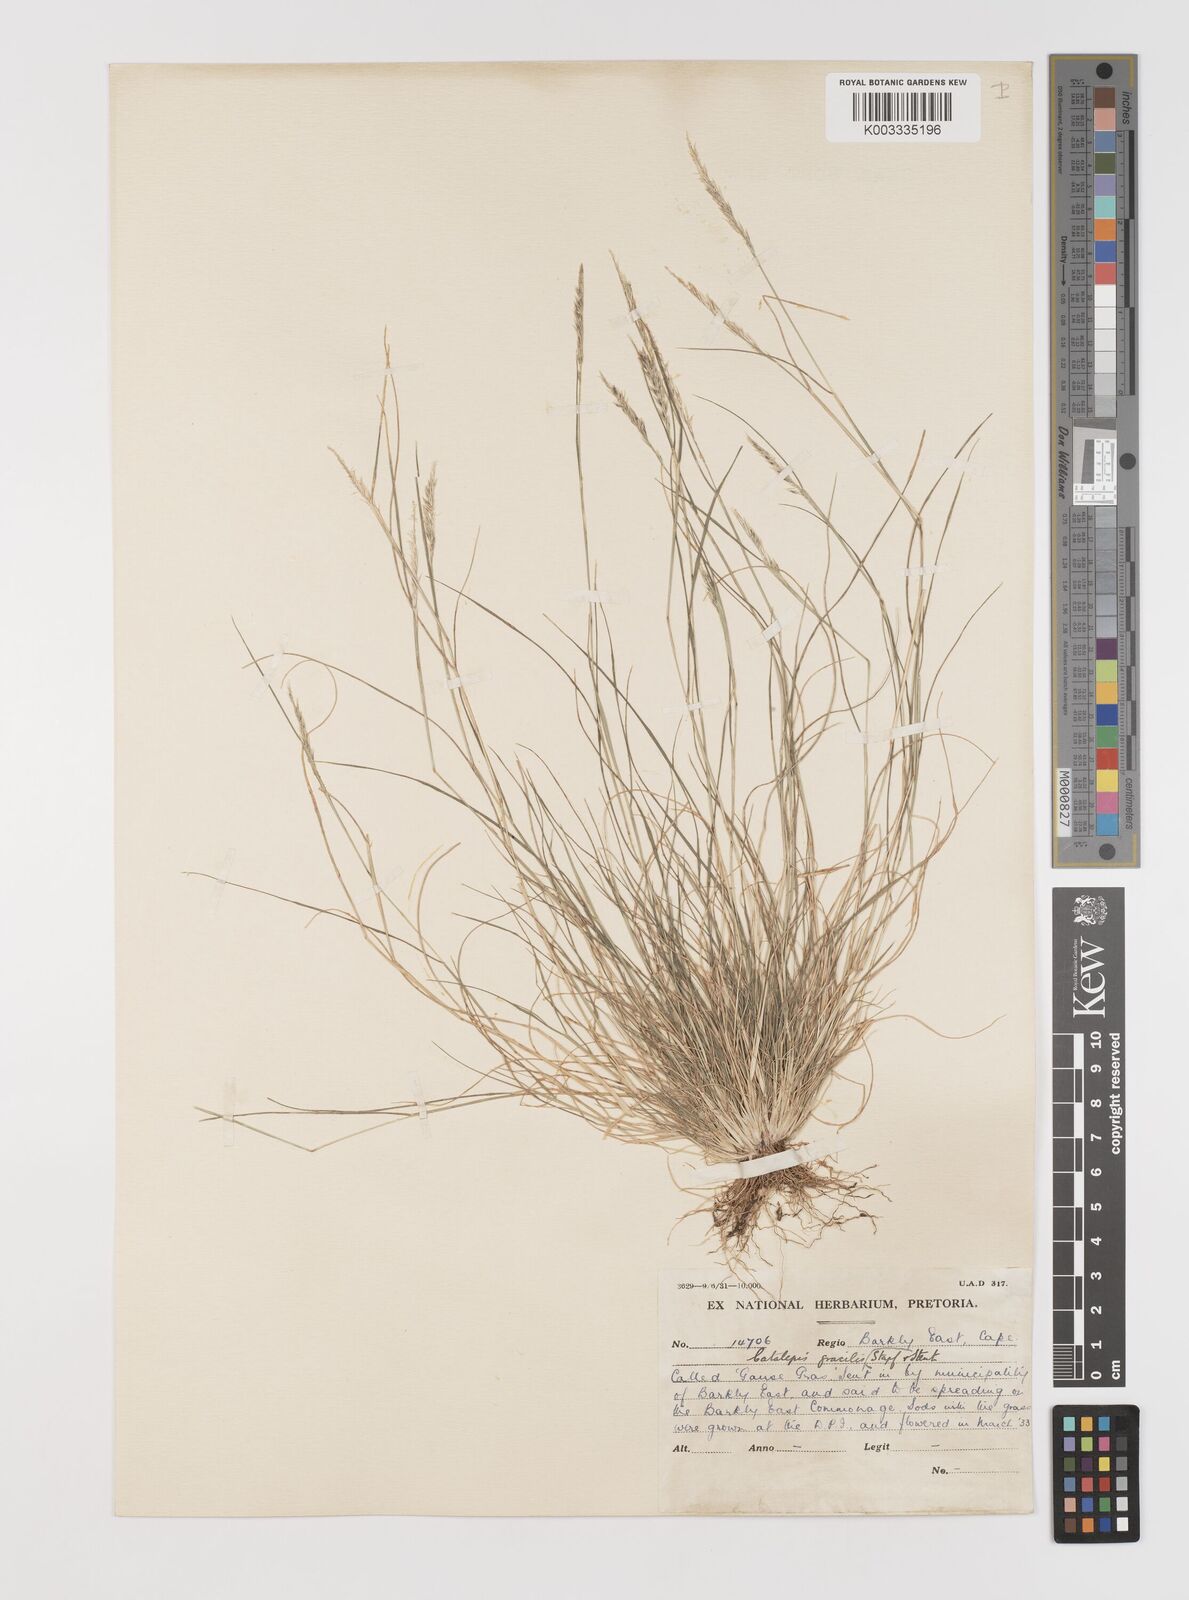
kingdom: Plantae
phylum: Tracheophyta
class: Liliopsida
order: Poales
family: Poaceae
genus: Catalepis
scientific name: Catalepis gracilis
